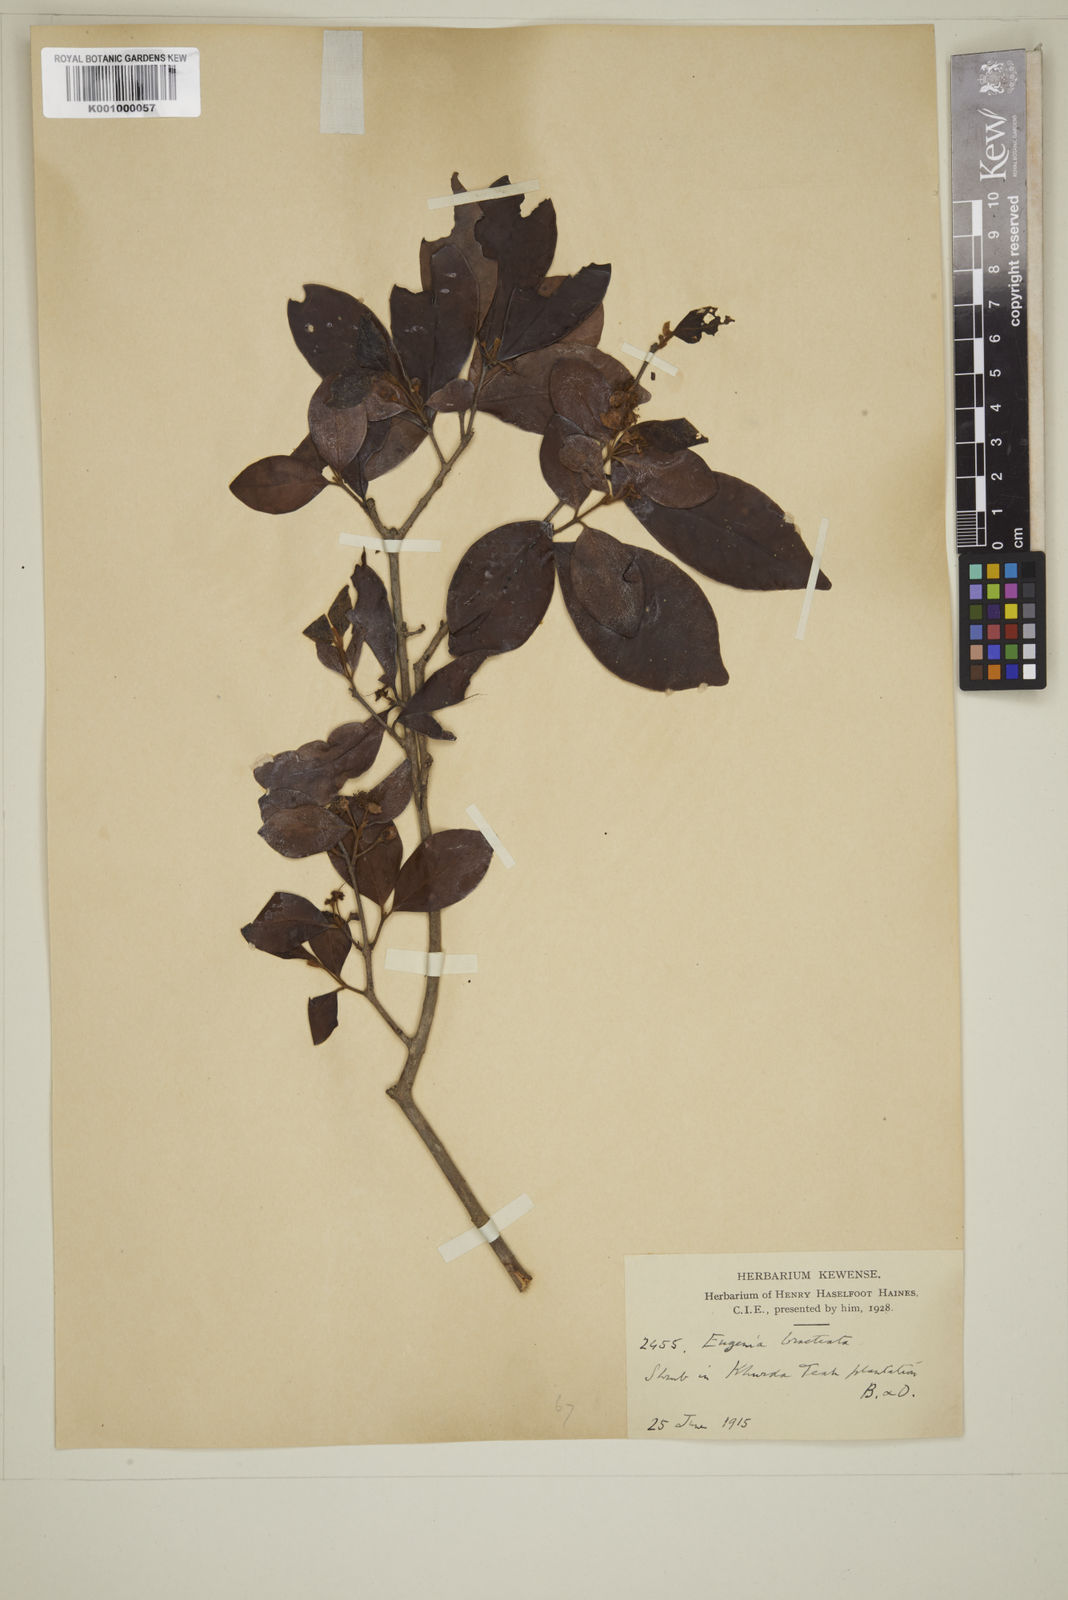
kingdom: Plantae
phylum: Tracheophyta
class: Magnoliopsida
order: Myrtales
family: Myrtaceae
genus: Myrcia
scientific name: Myrcia bracteata
